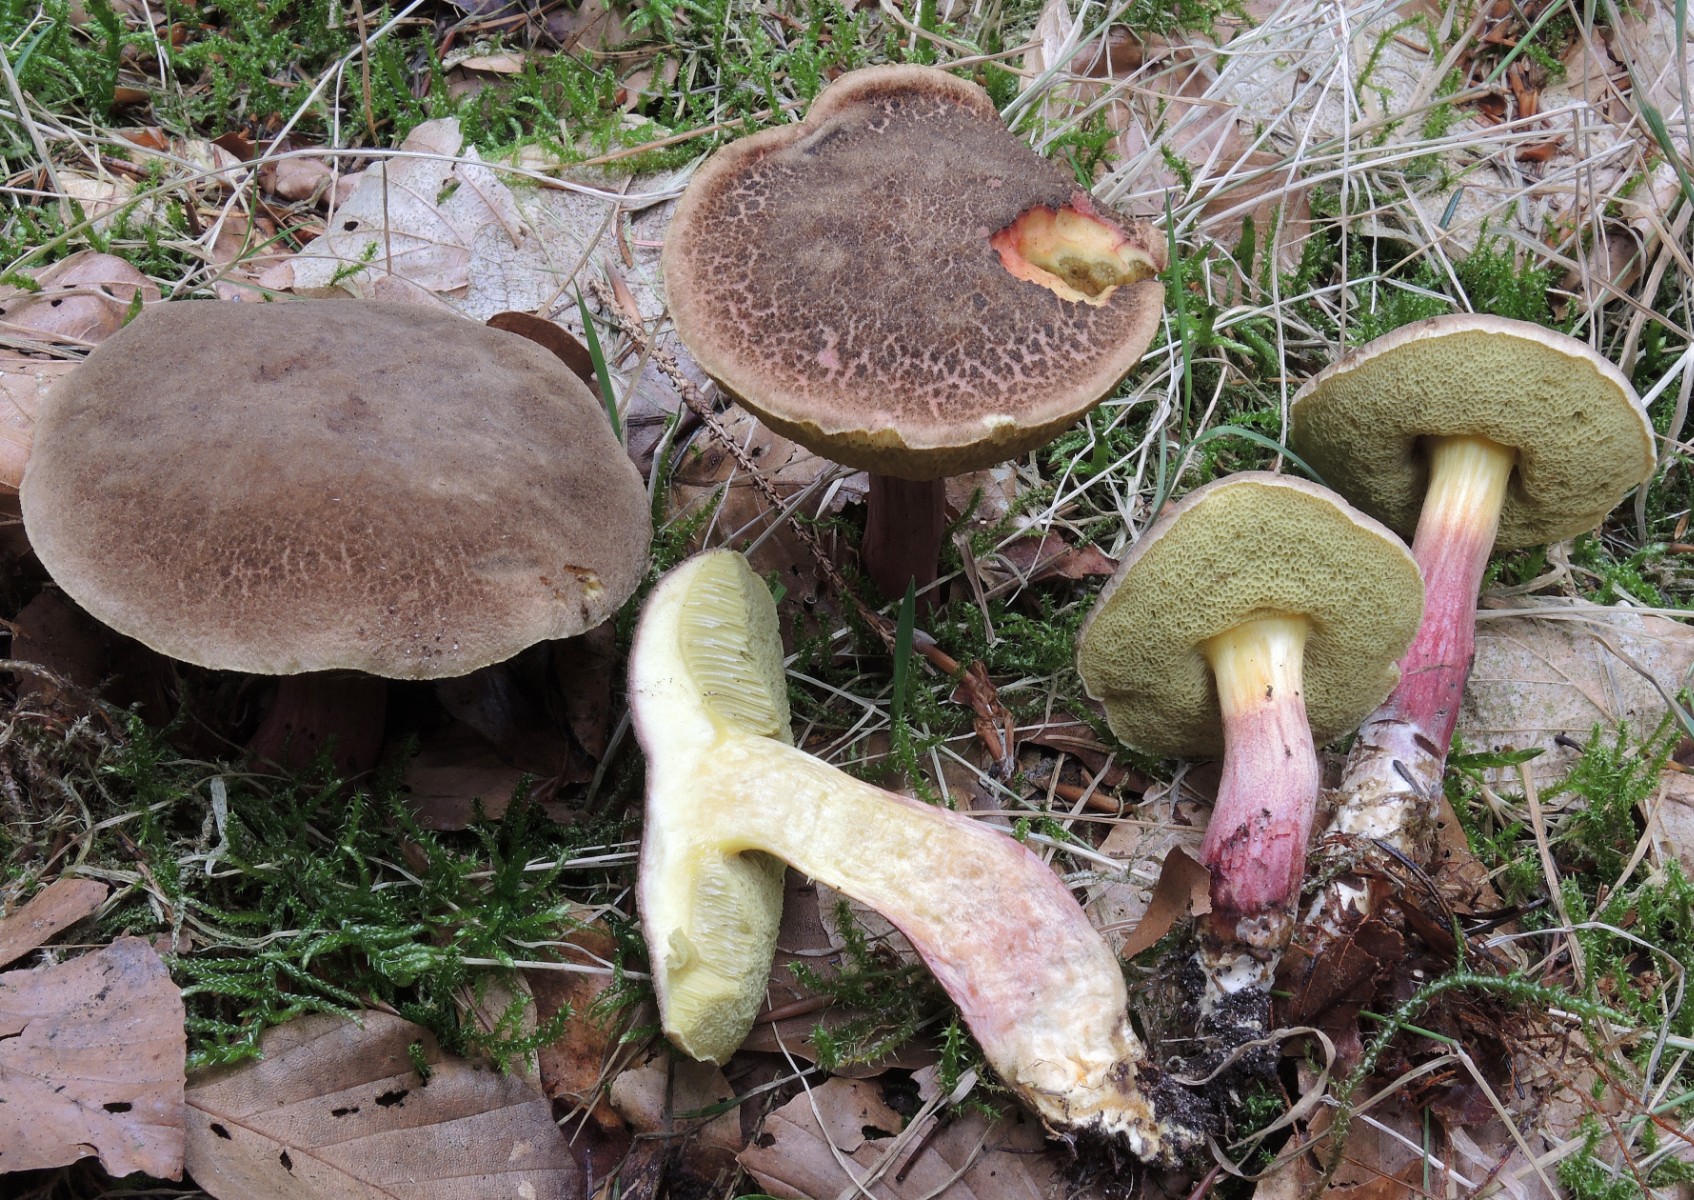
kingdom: Fungi
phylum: Basidiomycota
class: Agaricomycetes
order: Boletales
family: Boletaceae
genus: Xerocomellus
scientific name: Xerocomellus chrysenteron
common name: rødsprukken rørhat
